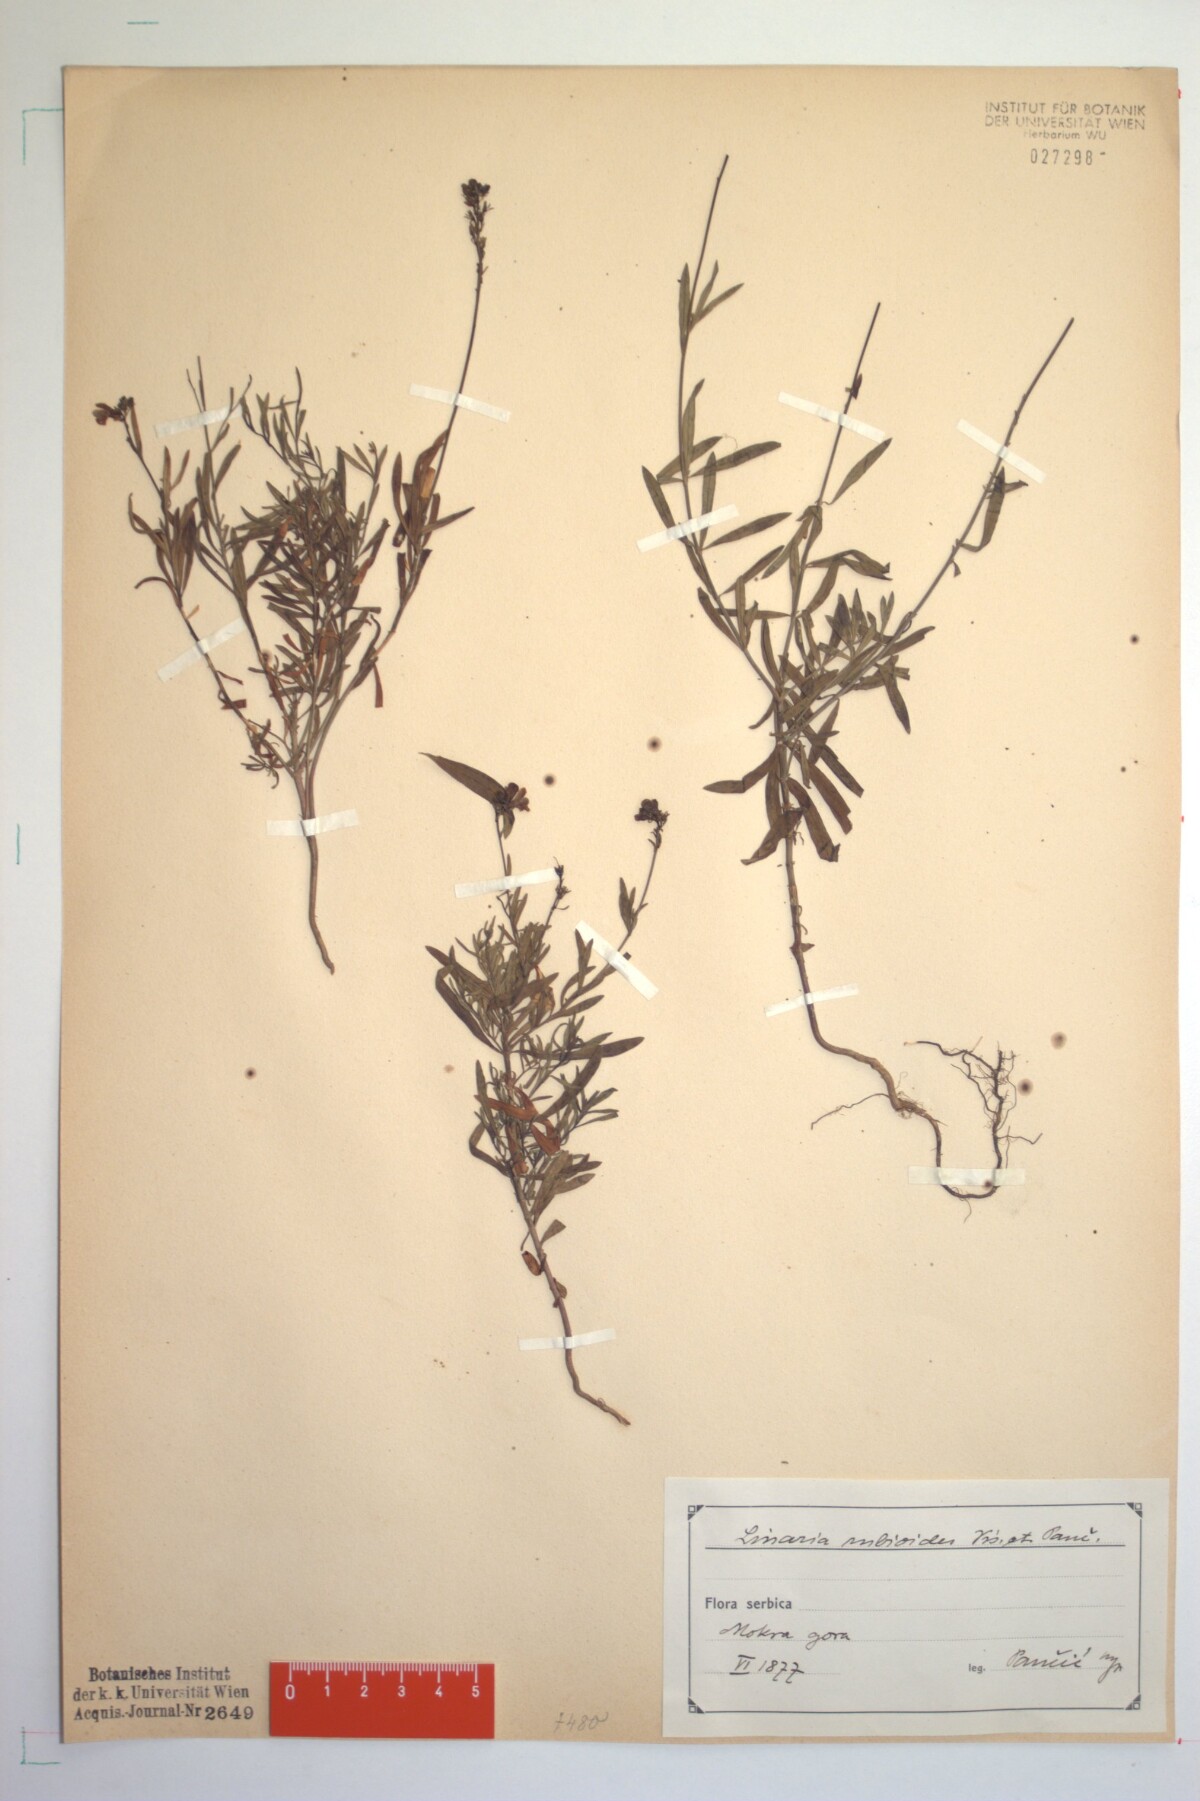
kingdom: Plantae
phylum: Tracheophyta
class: Magnoliopsida
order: Lamiales
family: Plantaginaceae
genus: Linaria
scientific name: Linaria rubioides
